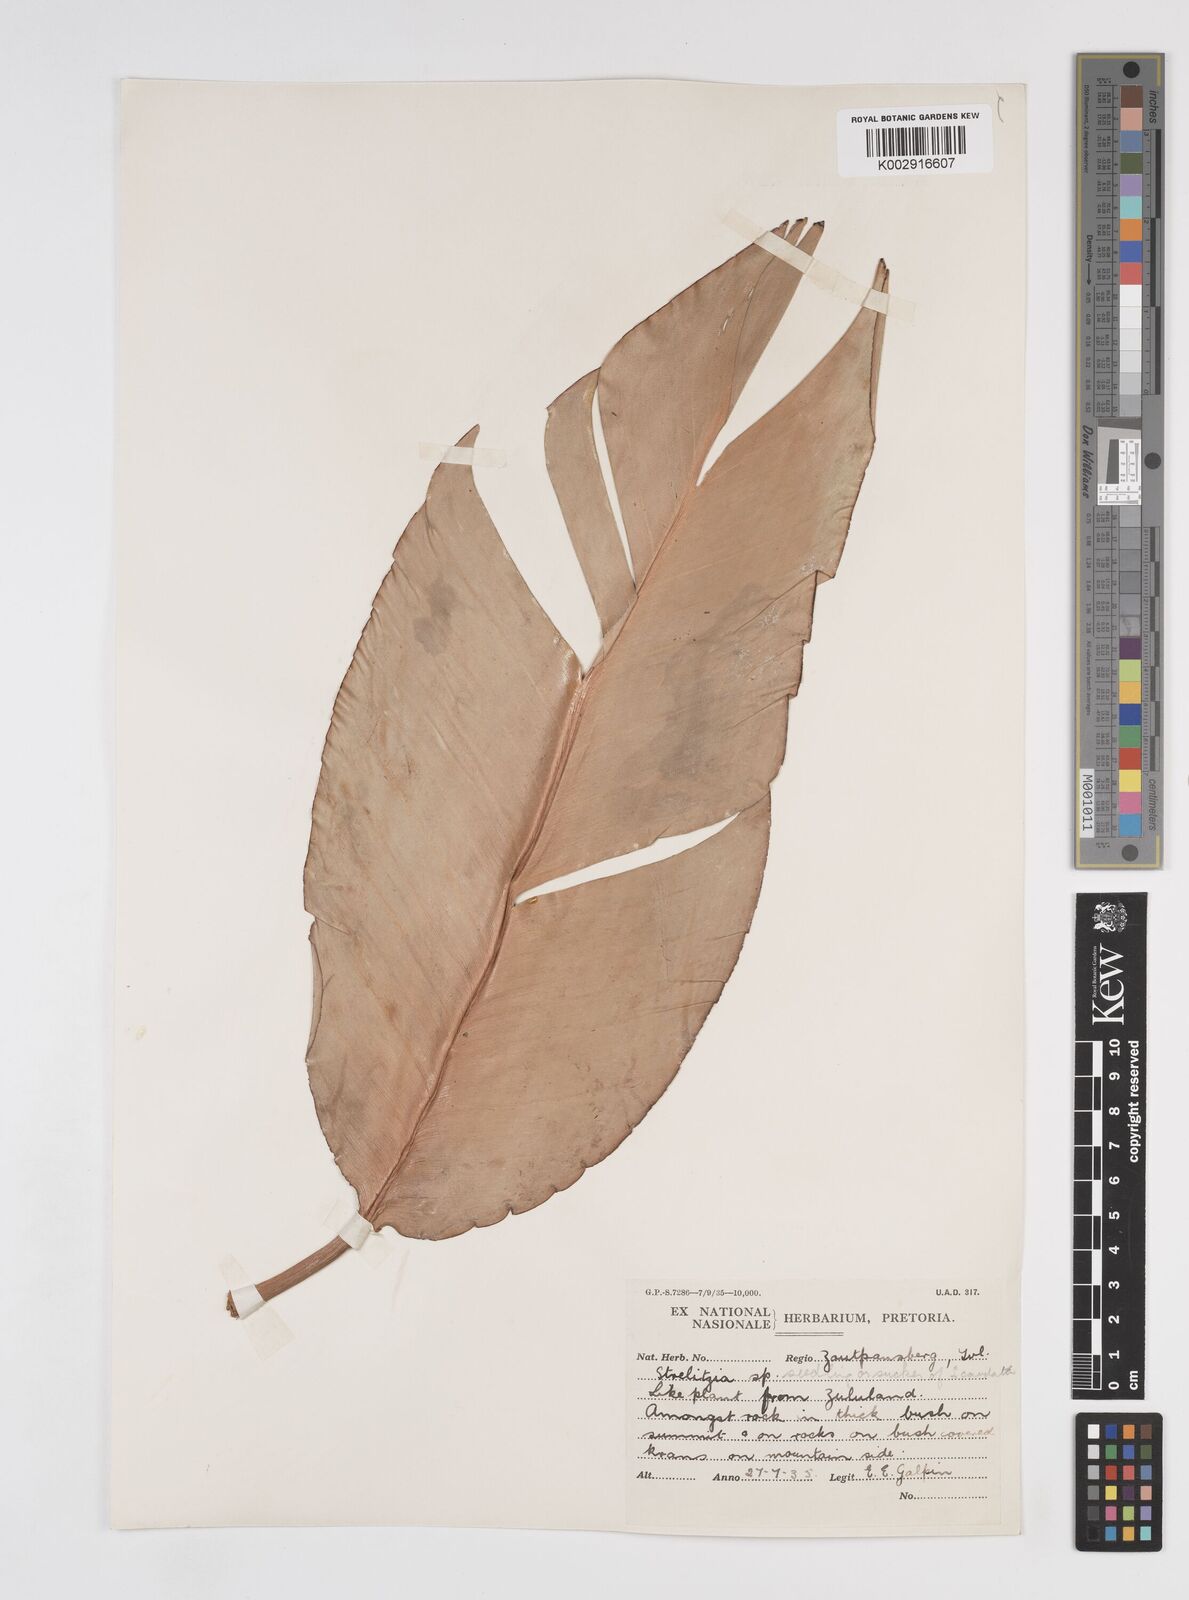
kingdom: Plantae
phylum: Tracheophyta
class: Liliopsida
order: Zingiberales
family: Strelitziaceae
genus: Strelitzia
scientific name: Strelitzia caudata
